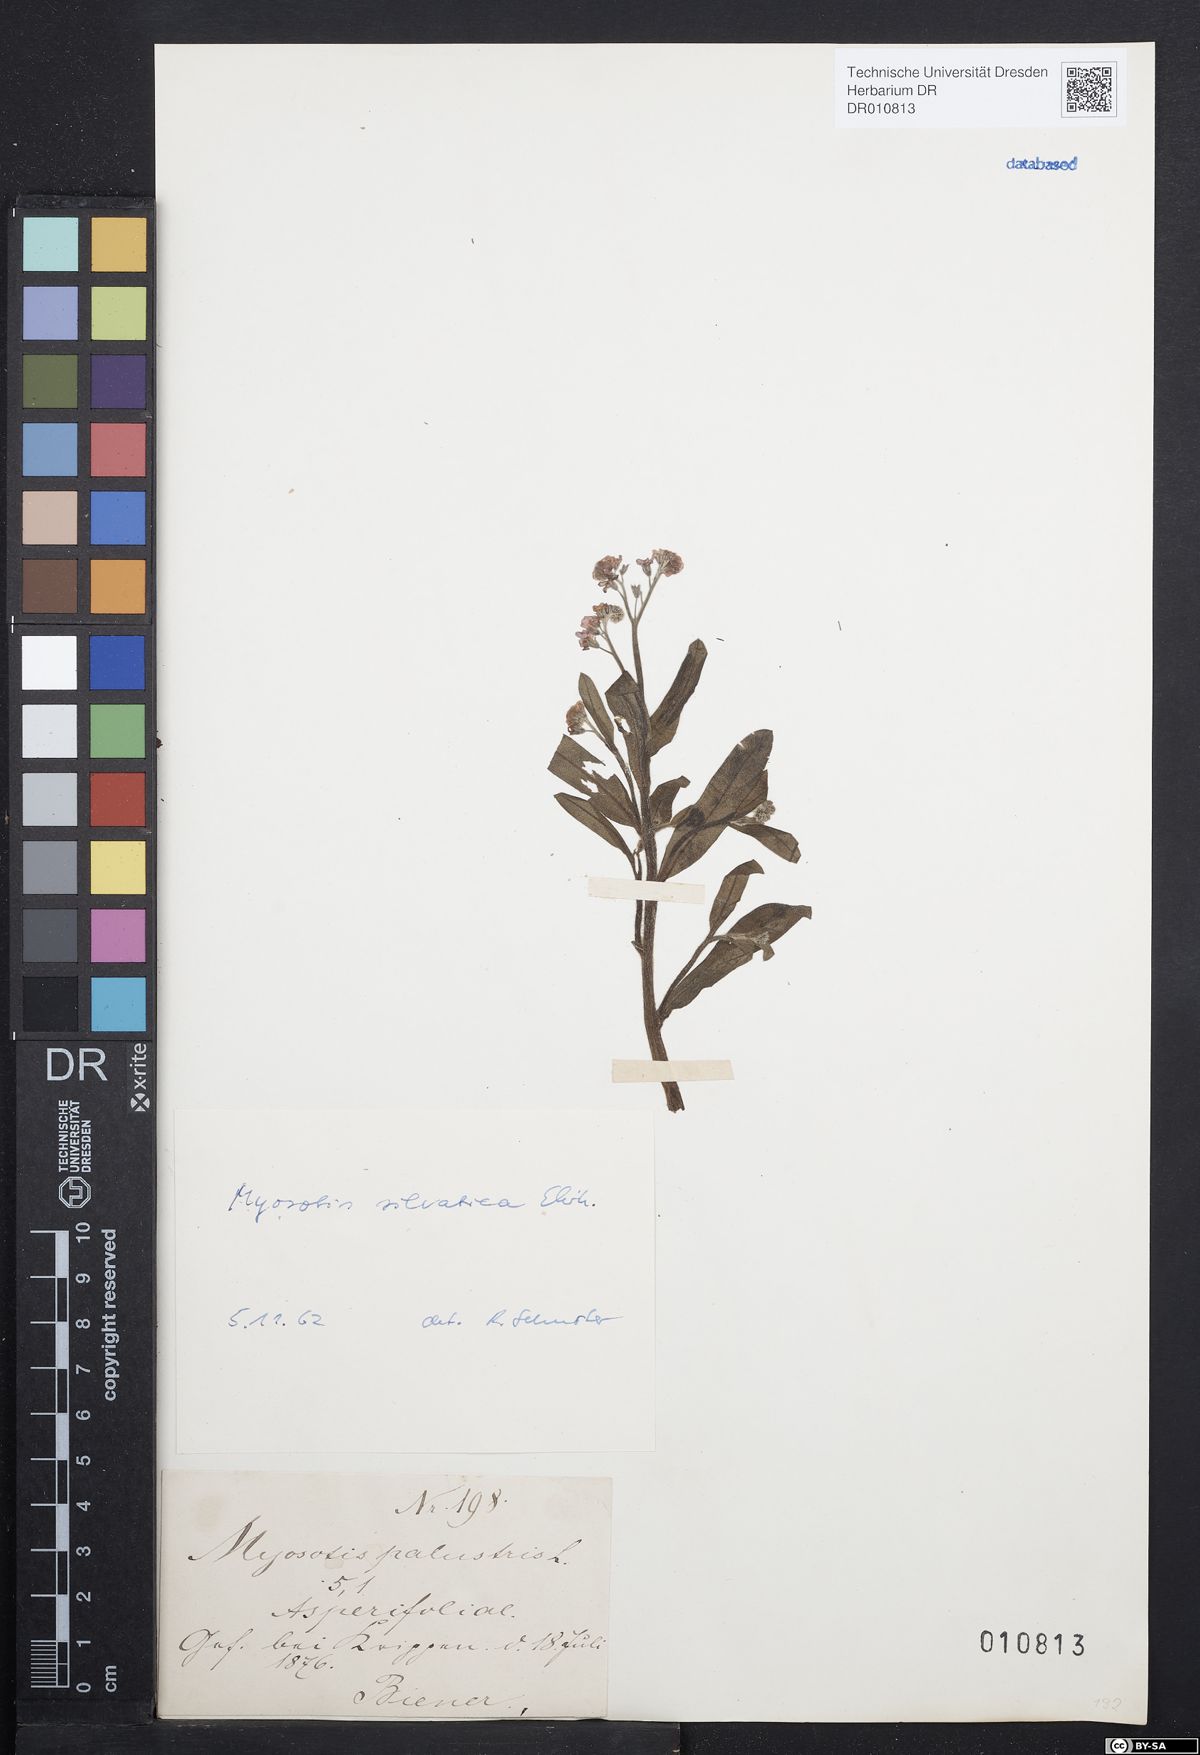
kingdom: Plantae
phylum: Tracheophyta
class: Magnoliopsida
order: Boraginales
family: Boraginaceae
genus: Myosotis
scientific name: Myosotis sylvatica
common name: Wood forget-me-not
